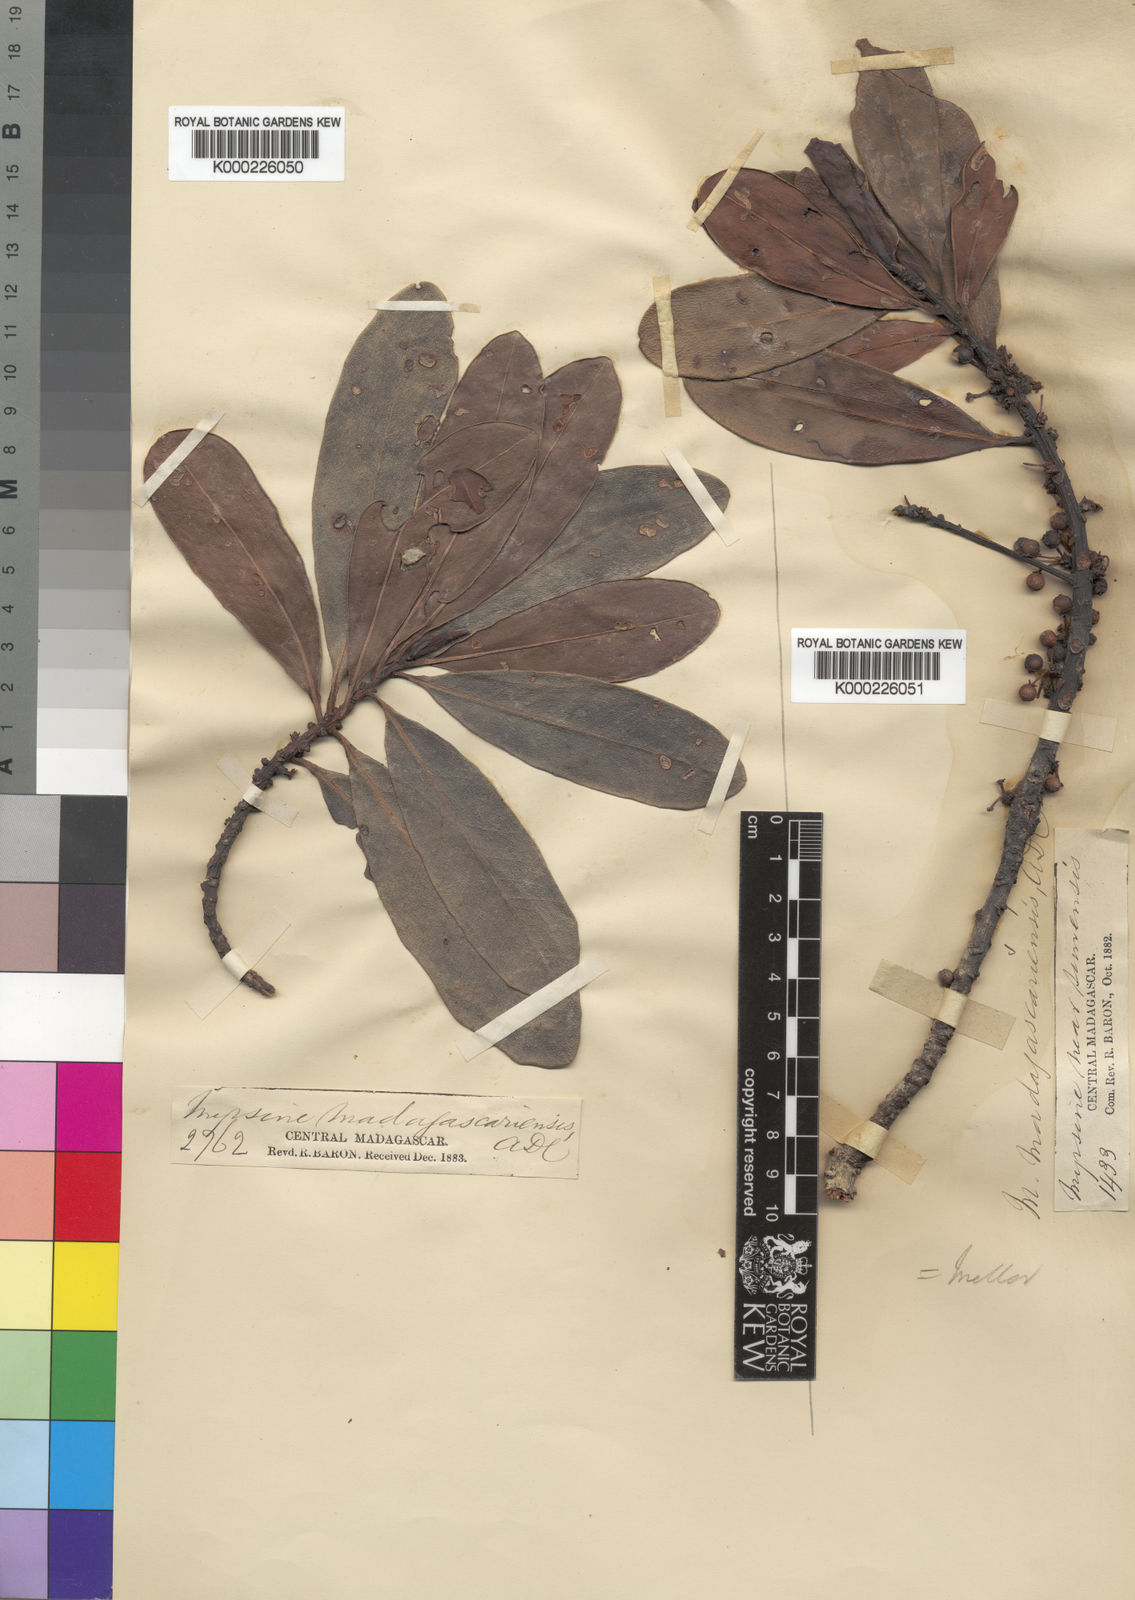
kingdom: Plantae
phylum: Tracheophyta
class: Magnoliopsida
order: Ericales
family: Primulaceae
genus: Myrsine
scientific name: Myrsine manglillo
